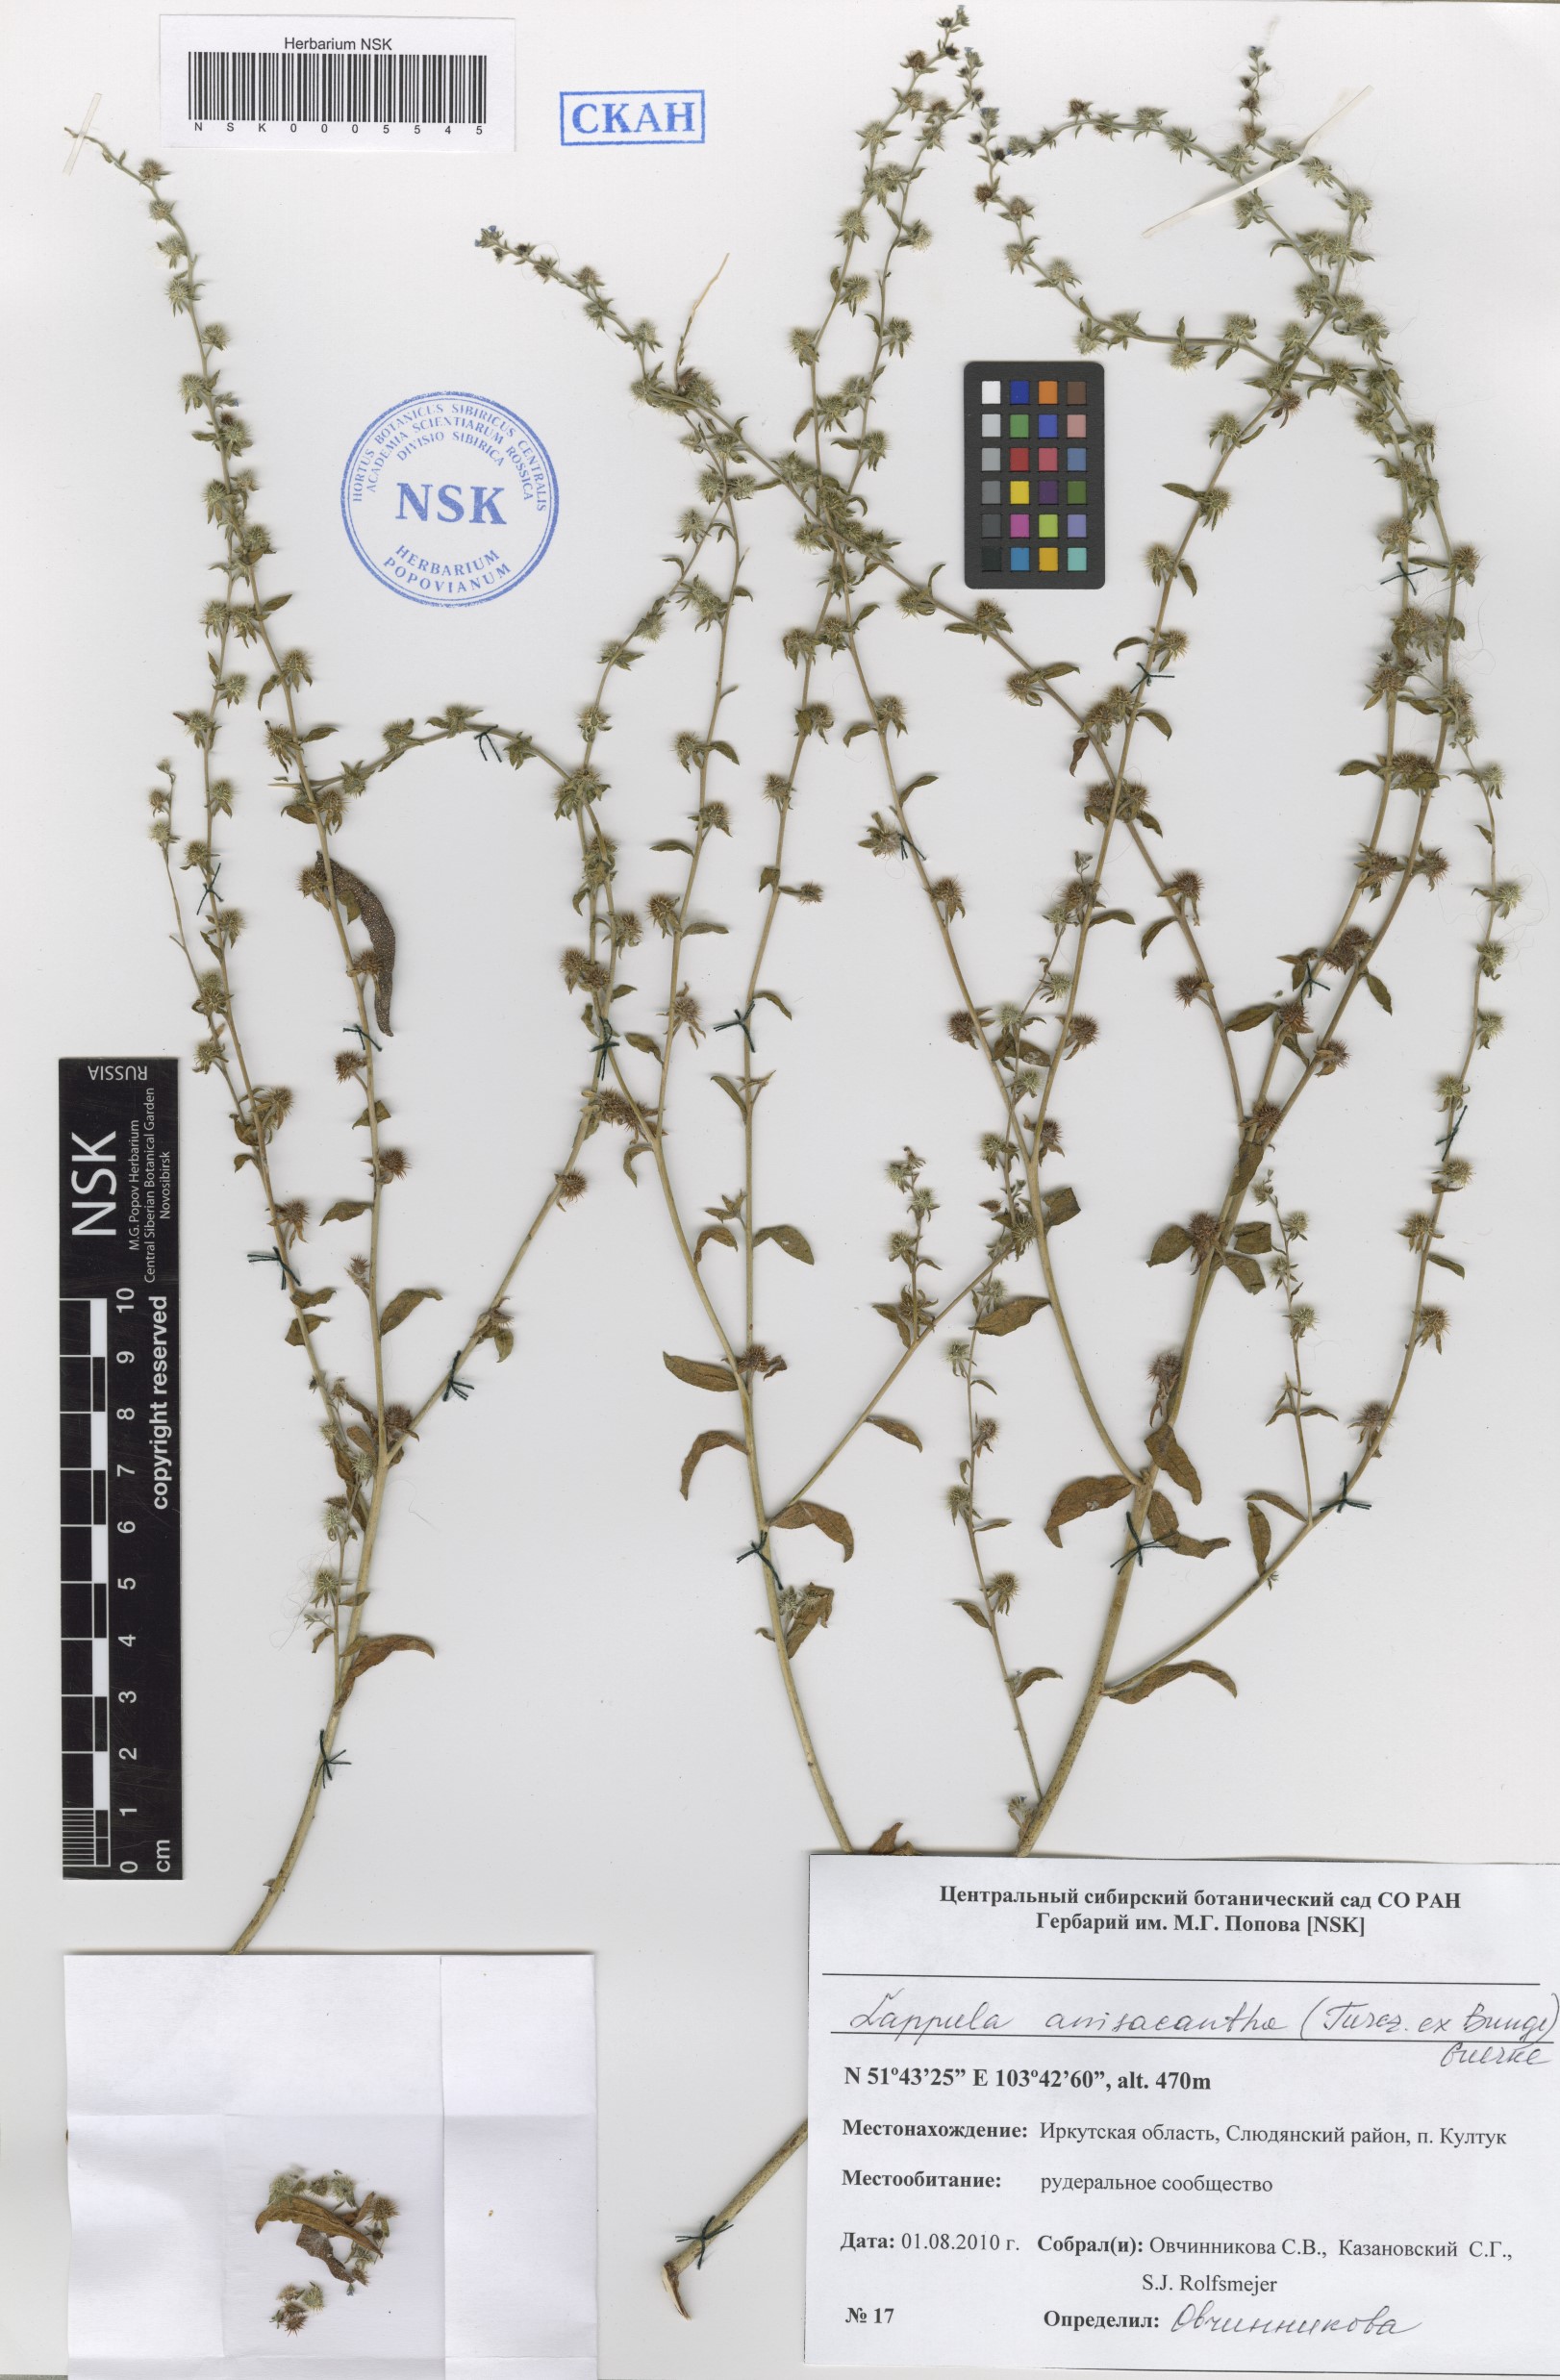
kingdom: Plantae
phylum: Tracheophyta
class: Magnoliopsida
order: Boraginales
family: Boraginaceae
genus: Lappula
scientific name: Lappula intermedia
